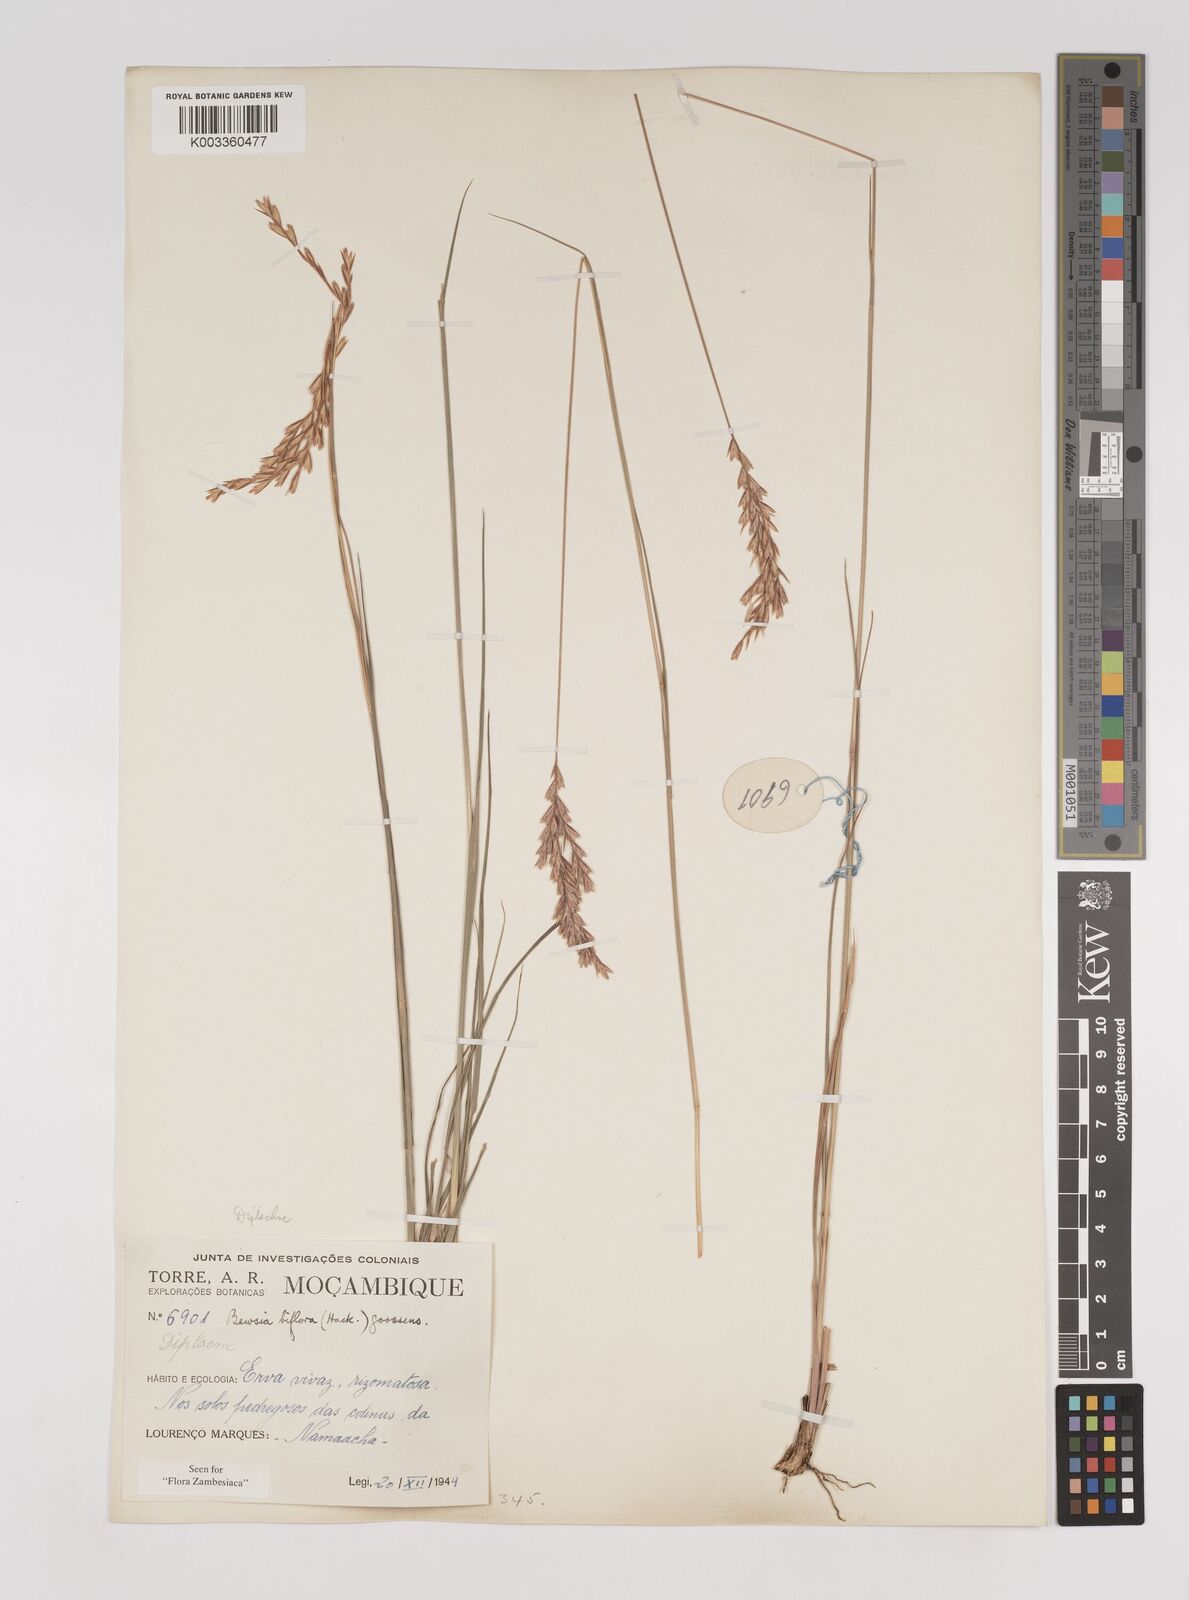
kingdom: Plantae
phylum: Tracheophyta
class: Liliopsida
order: Poales
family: Poaceae
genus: Bewsia
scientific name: Bewsia biflora
